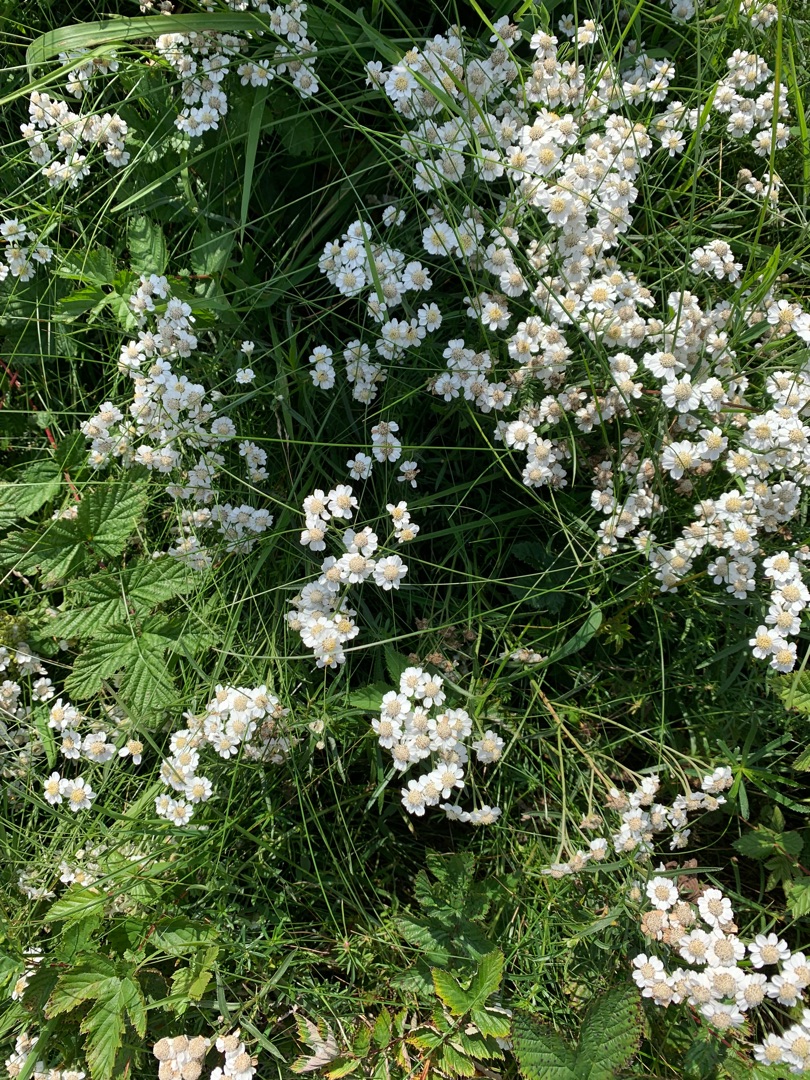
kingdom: Plantae
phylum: Tracheophyta
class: Magnoliopsida
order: Asterales
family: Asteraceae
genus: Achillea
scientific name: Achillea ptarmica
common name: Nyse-røllike
